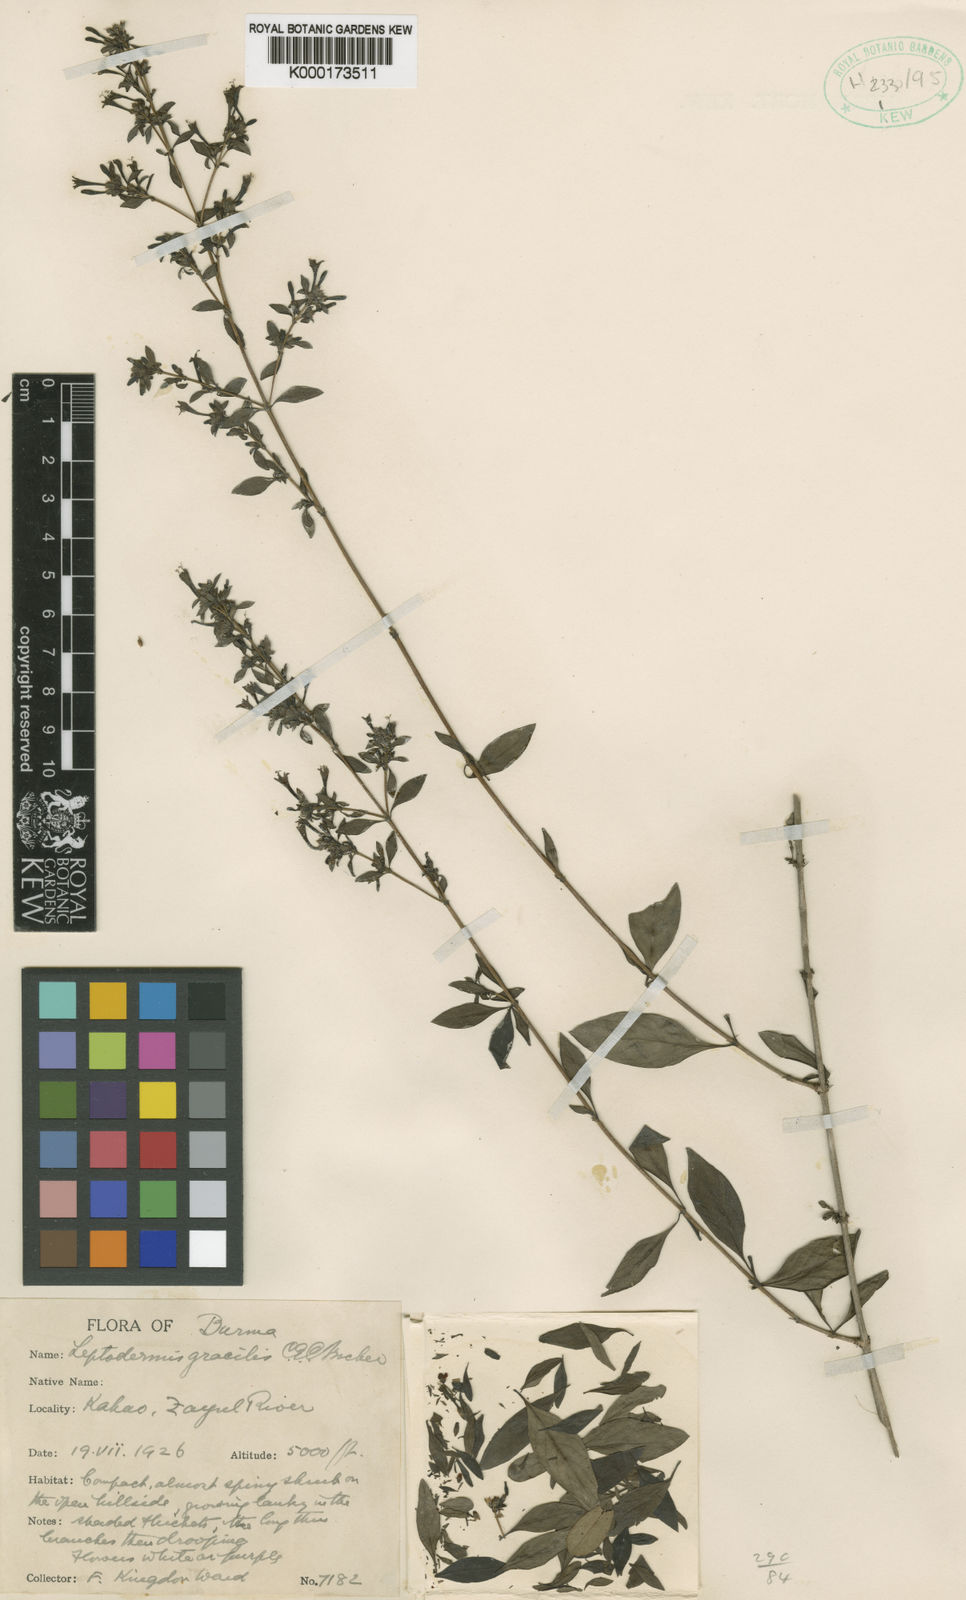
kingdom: Plantae
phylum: Tracheophyta
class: Magnoliopsida
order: Gentianales
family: Rubiaceae
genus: Leptodermis
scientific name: Leptodermis gracilis
